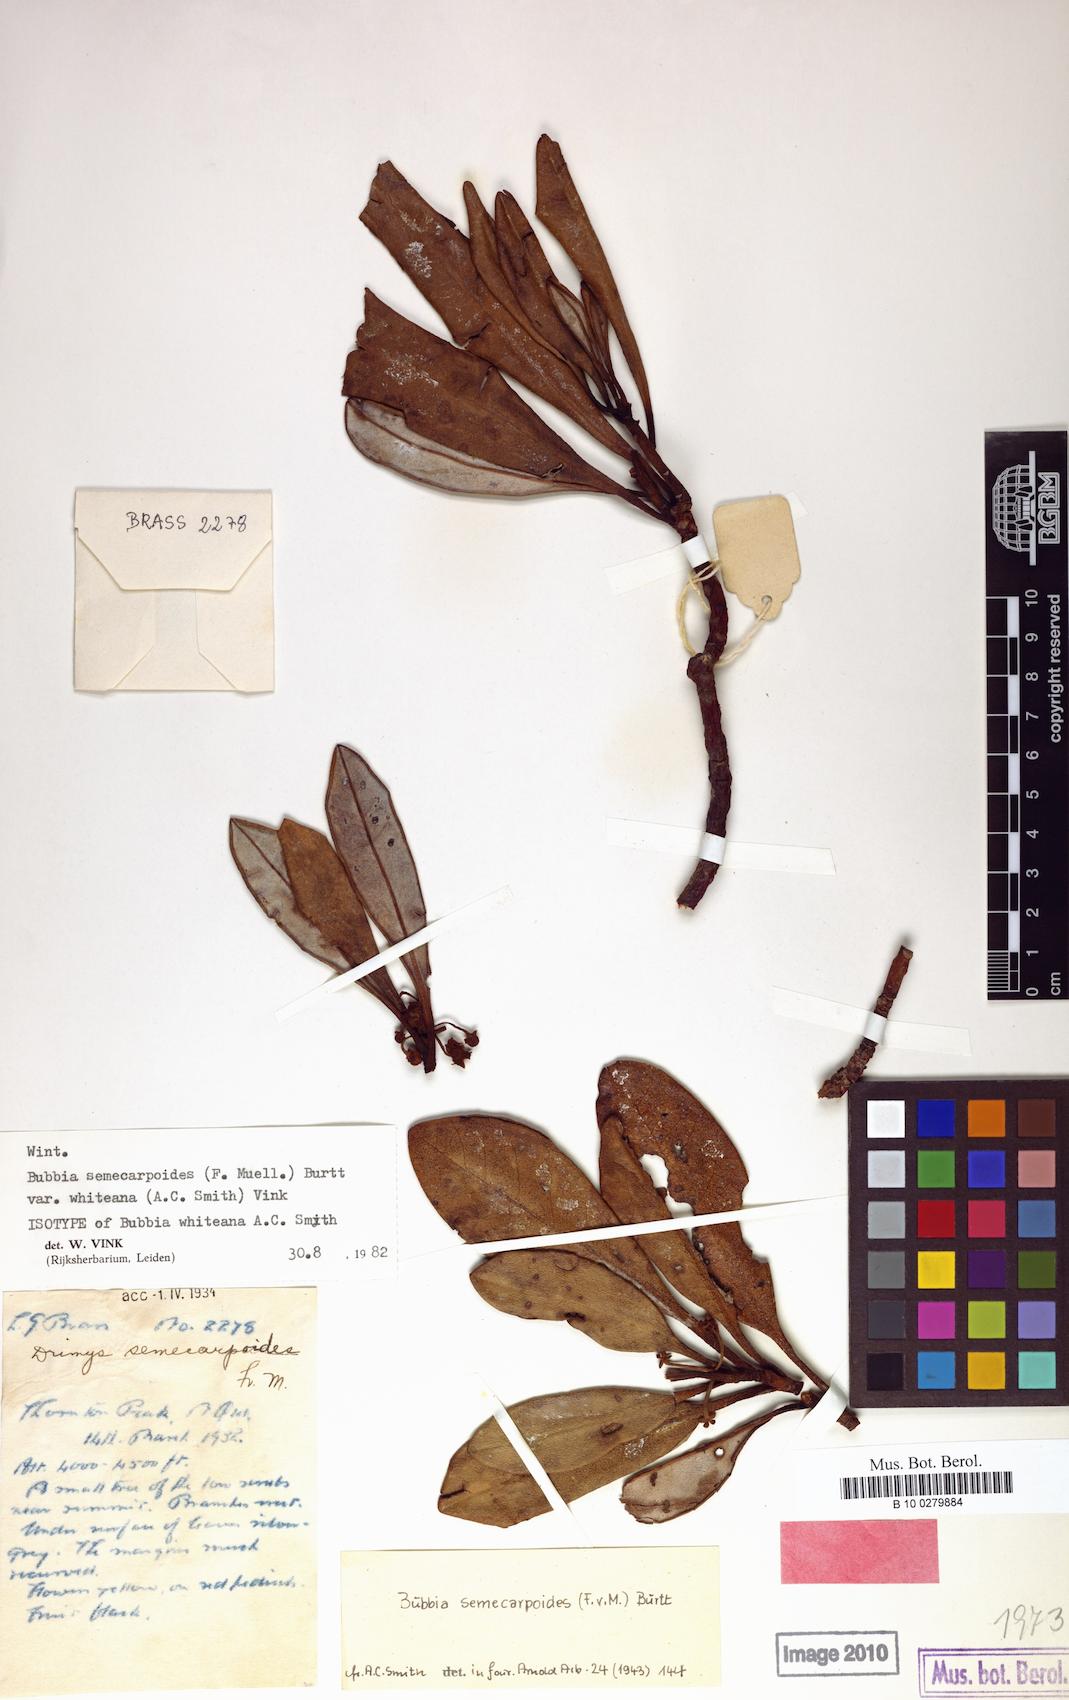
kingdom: Plantae
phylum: Tracheophyta
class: Magnoliopsida
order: Canellales
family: Winteraceae
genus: Zygogynum
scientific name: Zygogynum semecarpoides
